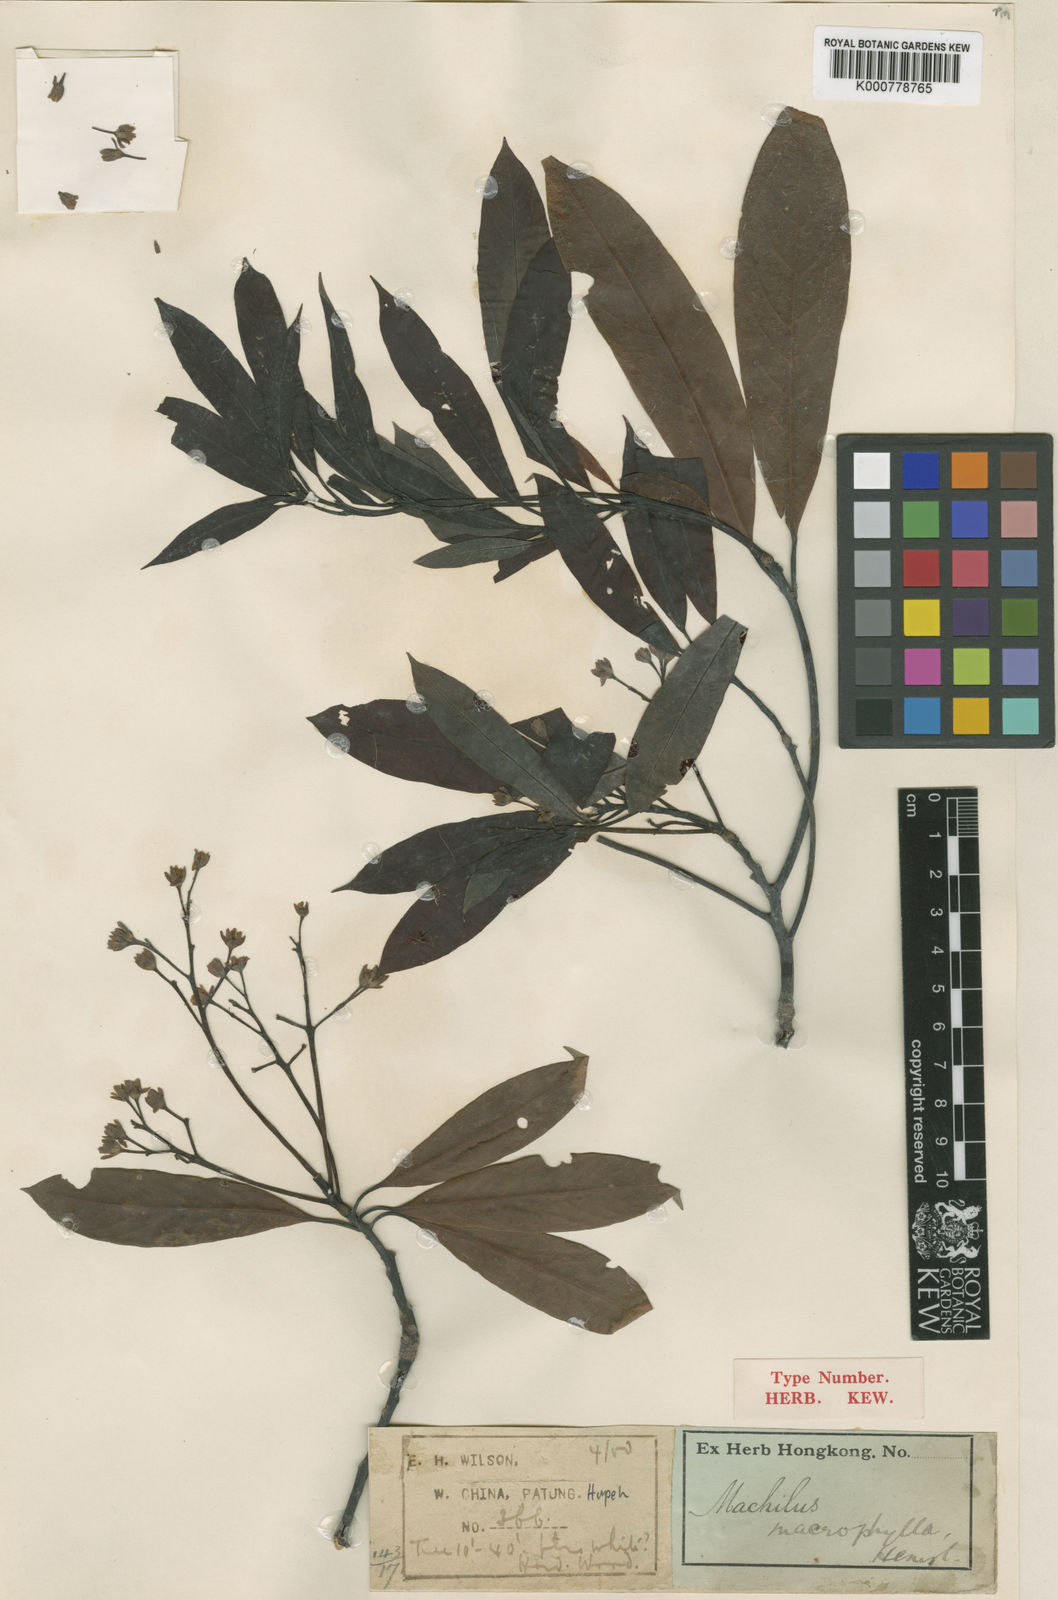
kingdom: Plantae
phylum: Tracheophyta
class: Magnoliopsida
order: Laurales
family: Lauraceae
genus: Machilus
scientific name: Machilus ichangensis
